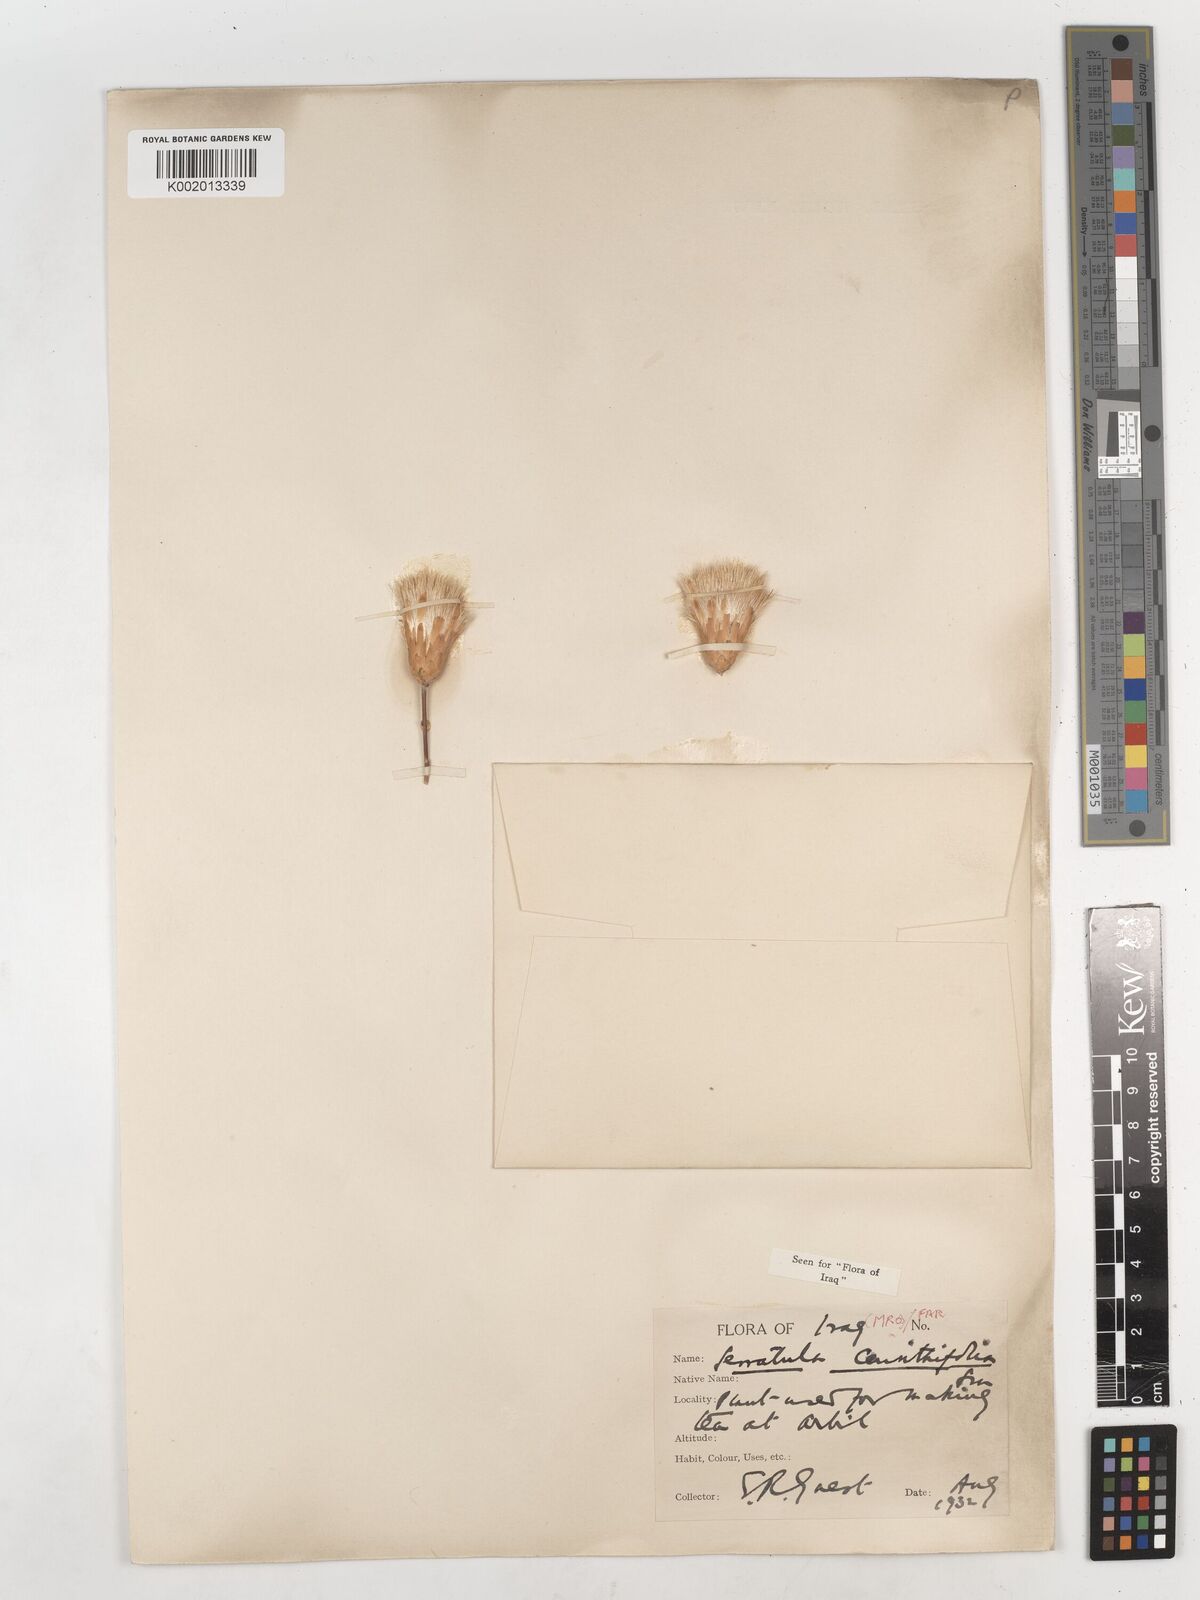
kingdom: Plantae
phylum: Tracheophyta
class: Magnoliopsida
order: Asterales
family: Asteraceae
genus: Klasea
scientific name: Klasea cerinthifolia
